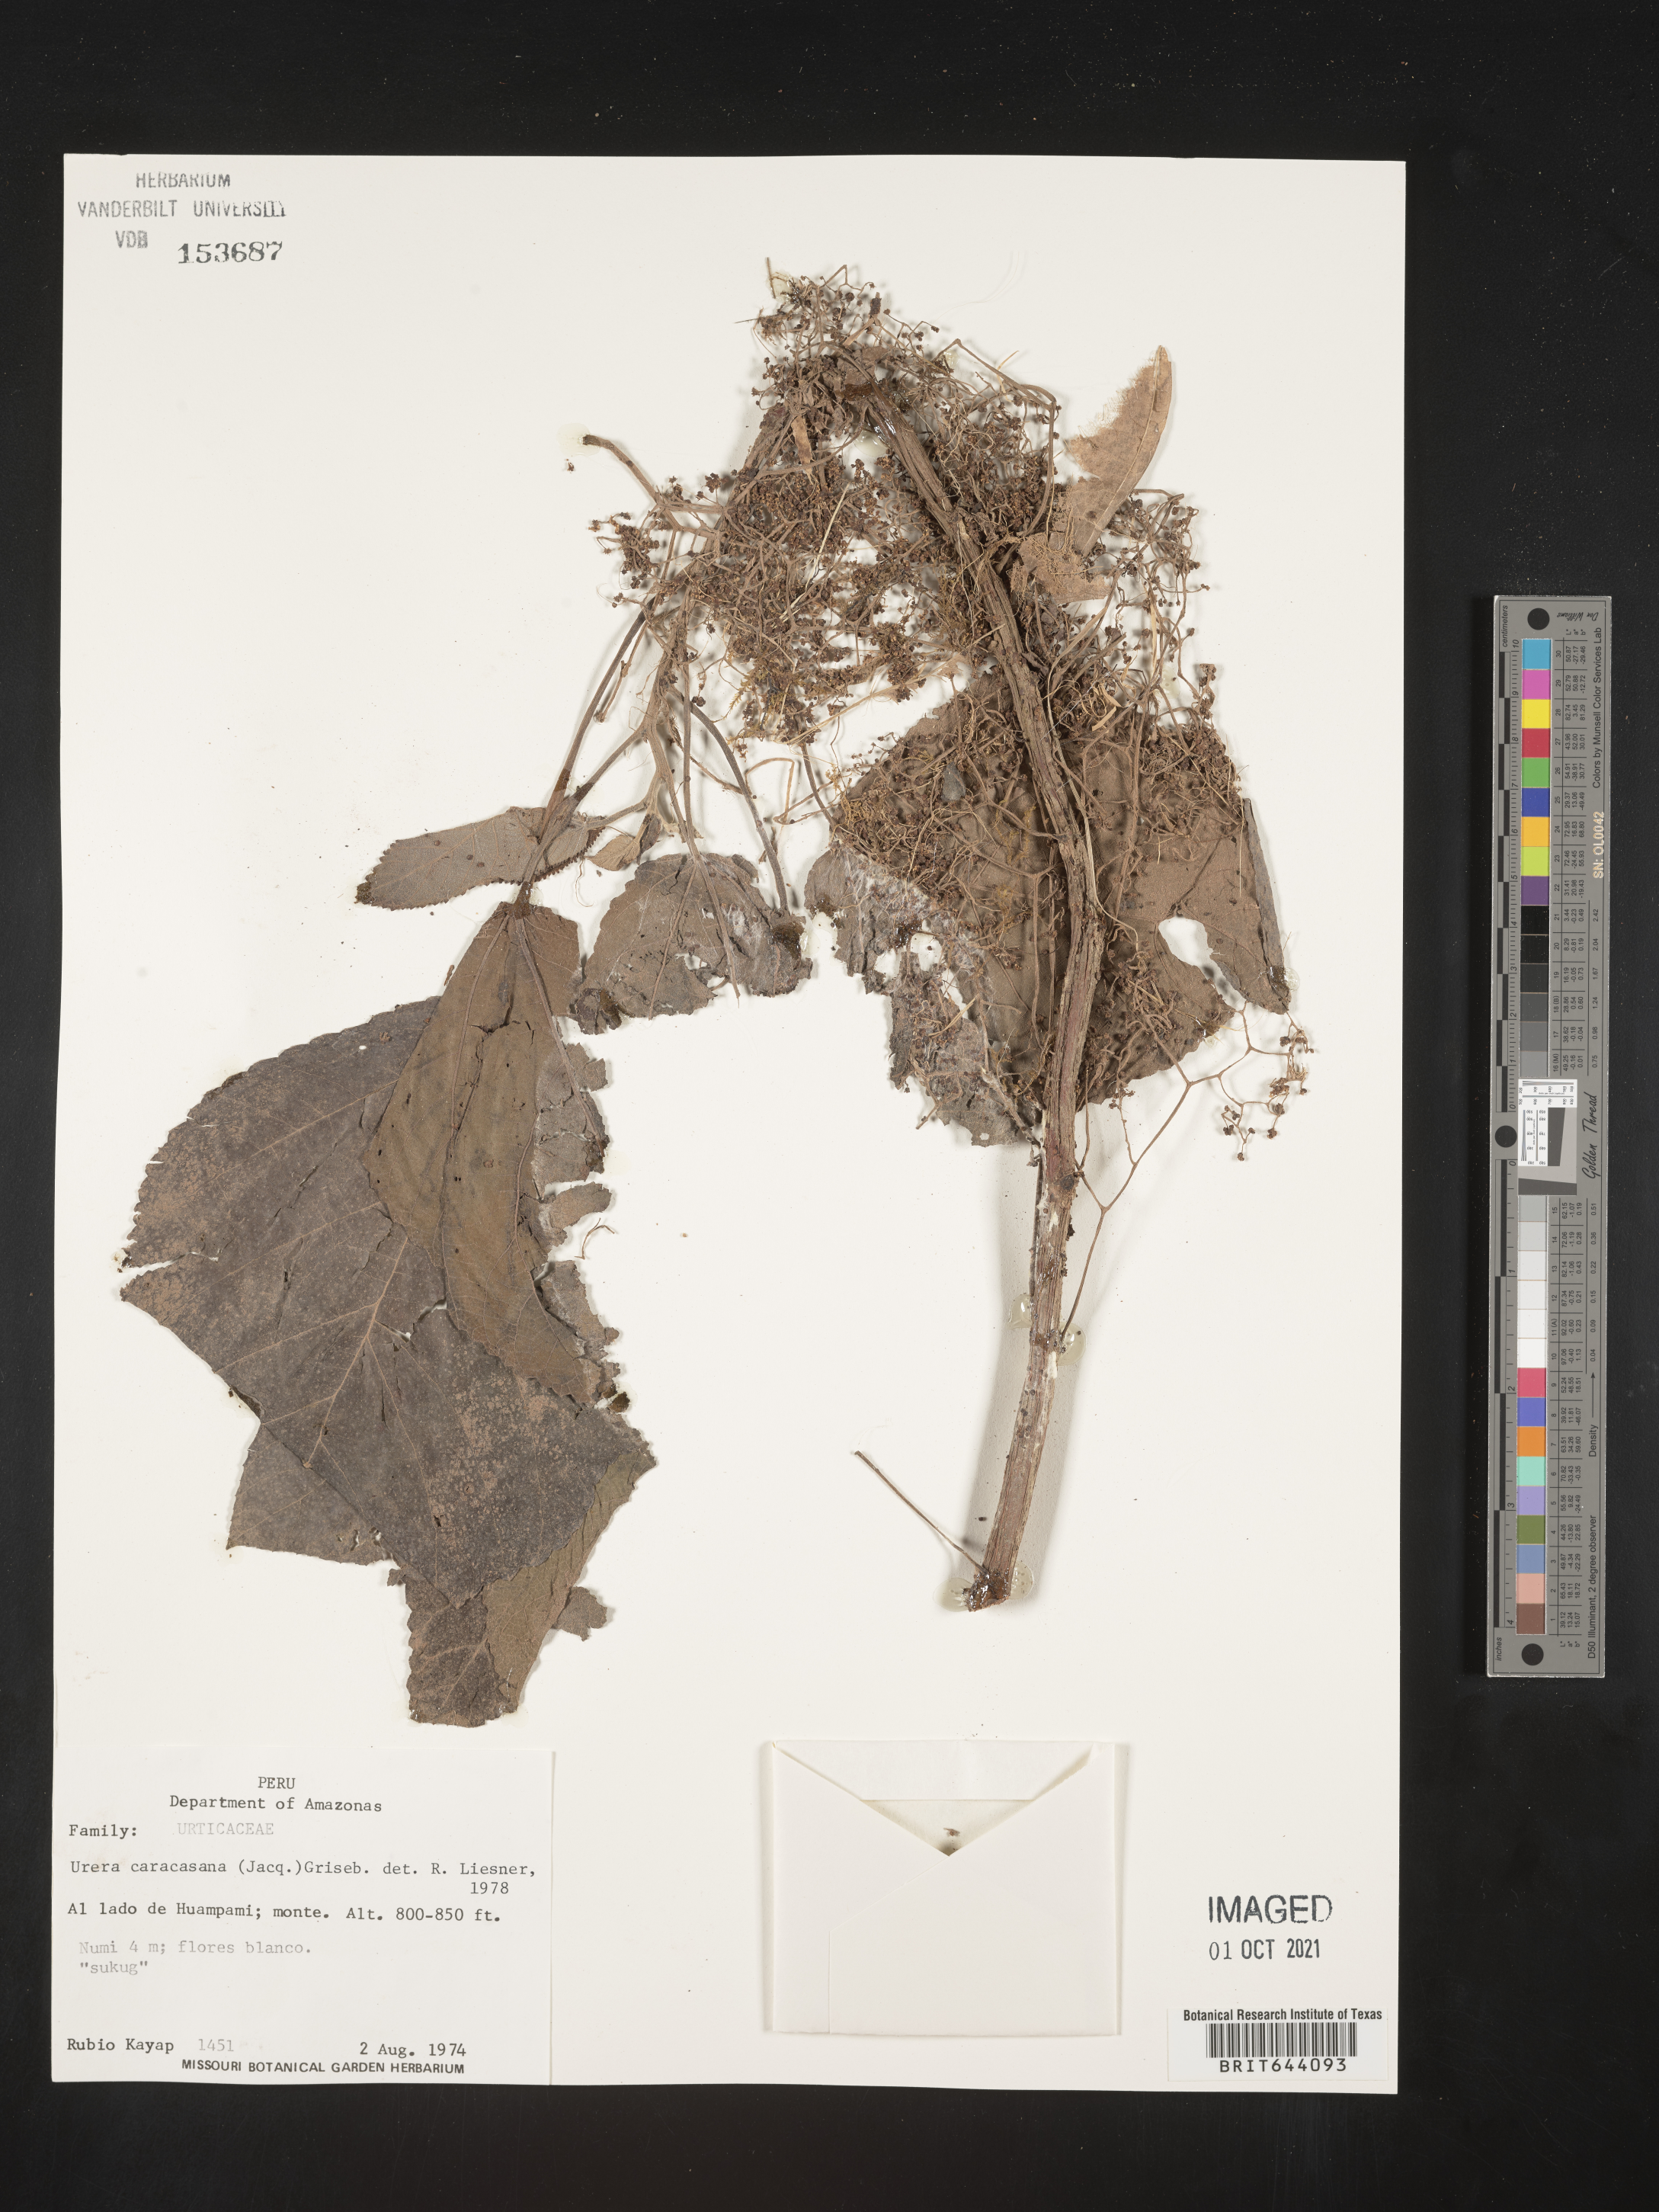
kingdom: Plantae
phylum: Tracheophyta
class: Magnoliopsida
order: Rosales
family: Urticaceae
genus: Urera
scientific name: Urera
